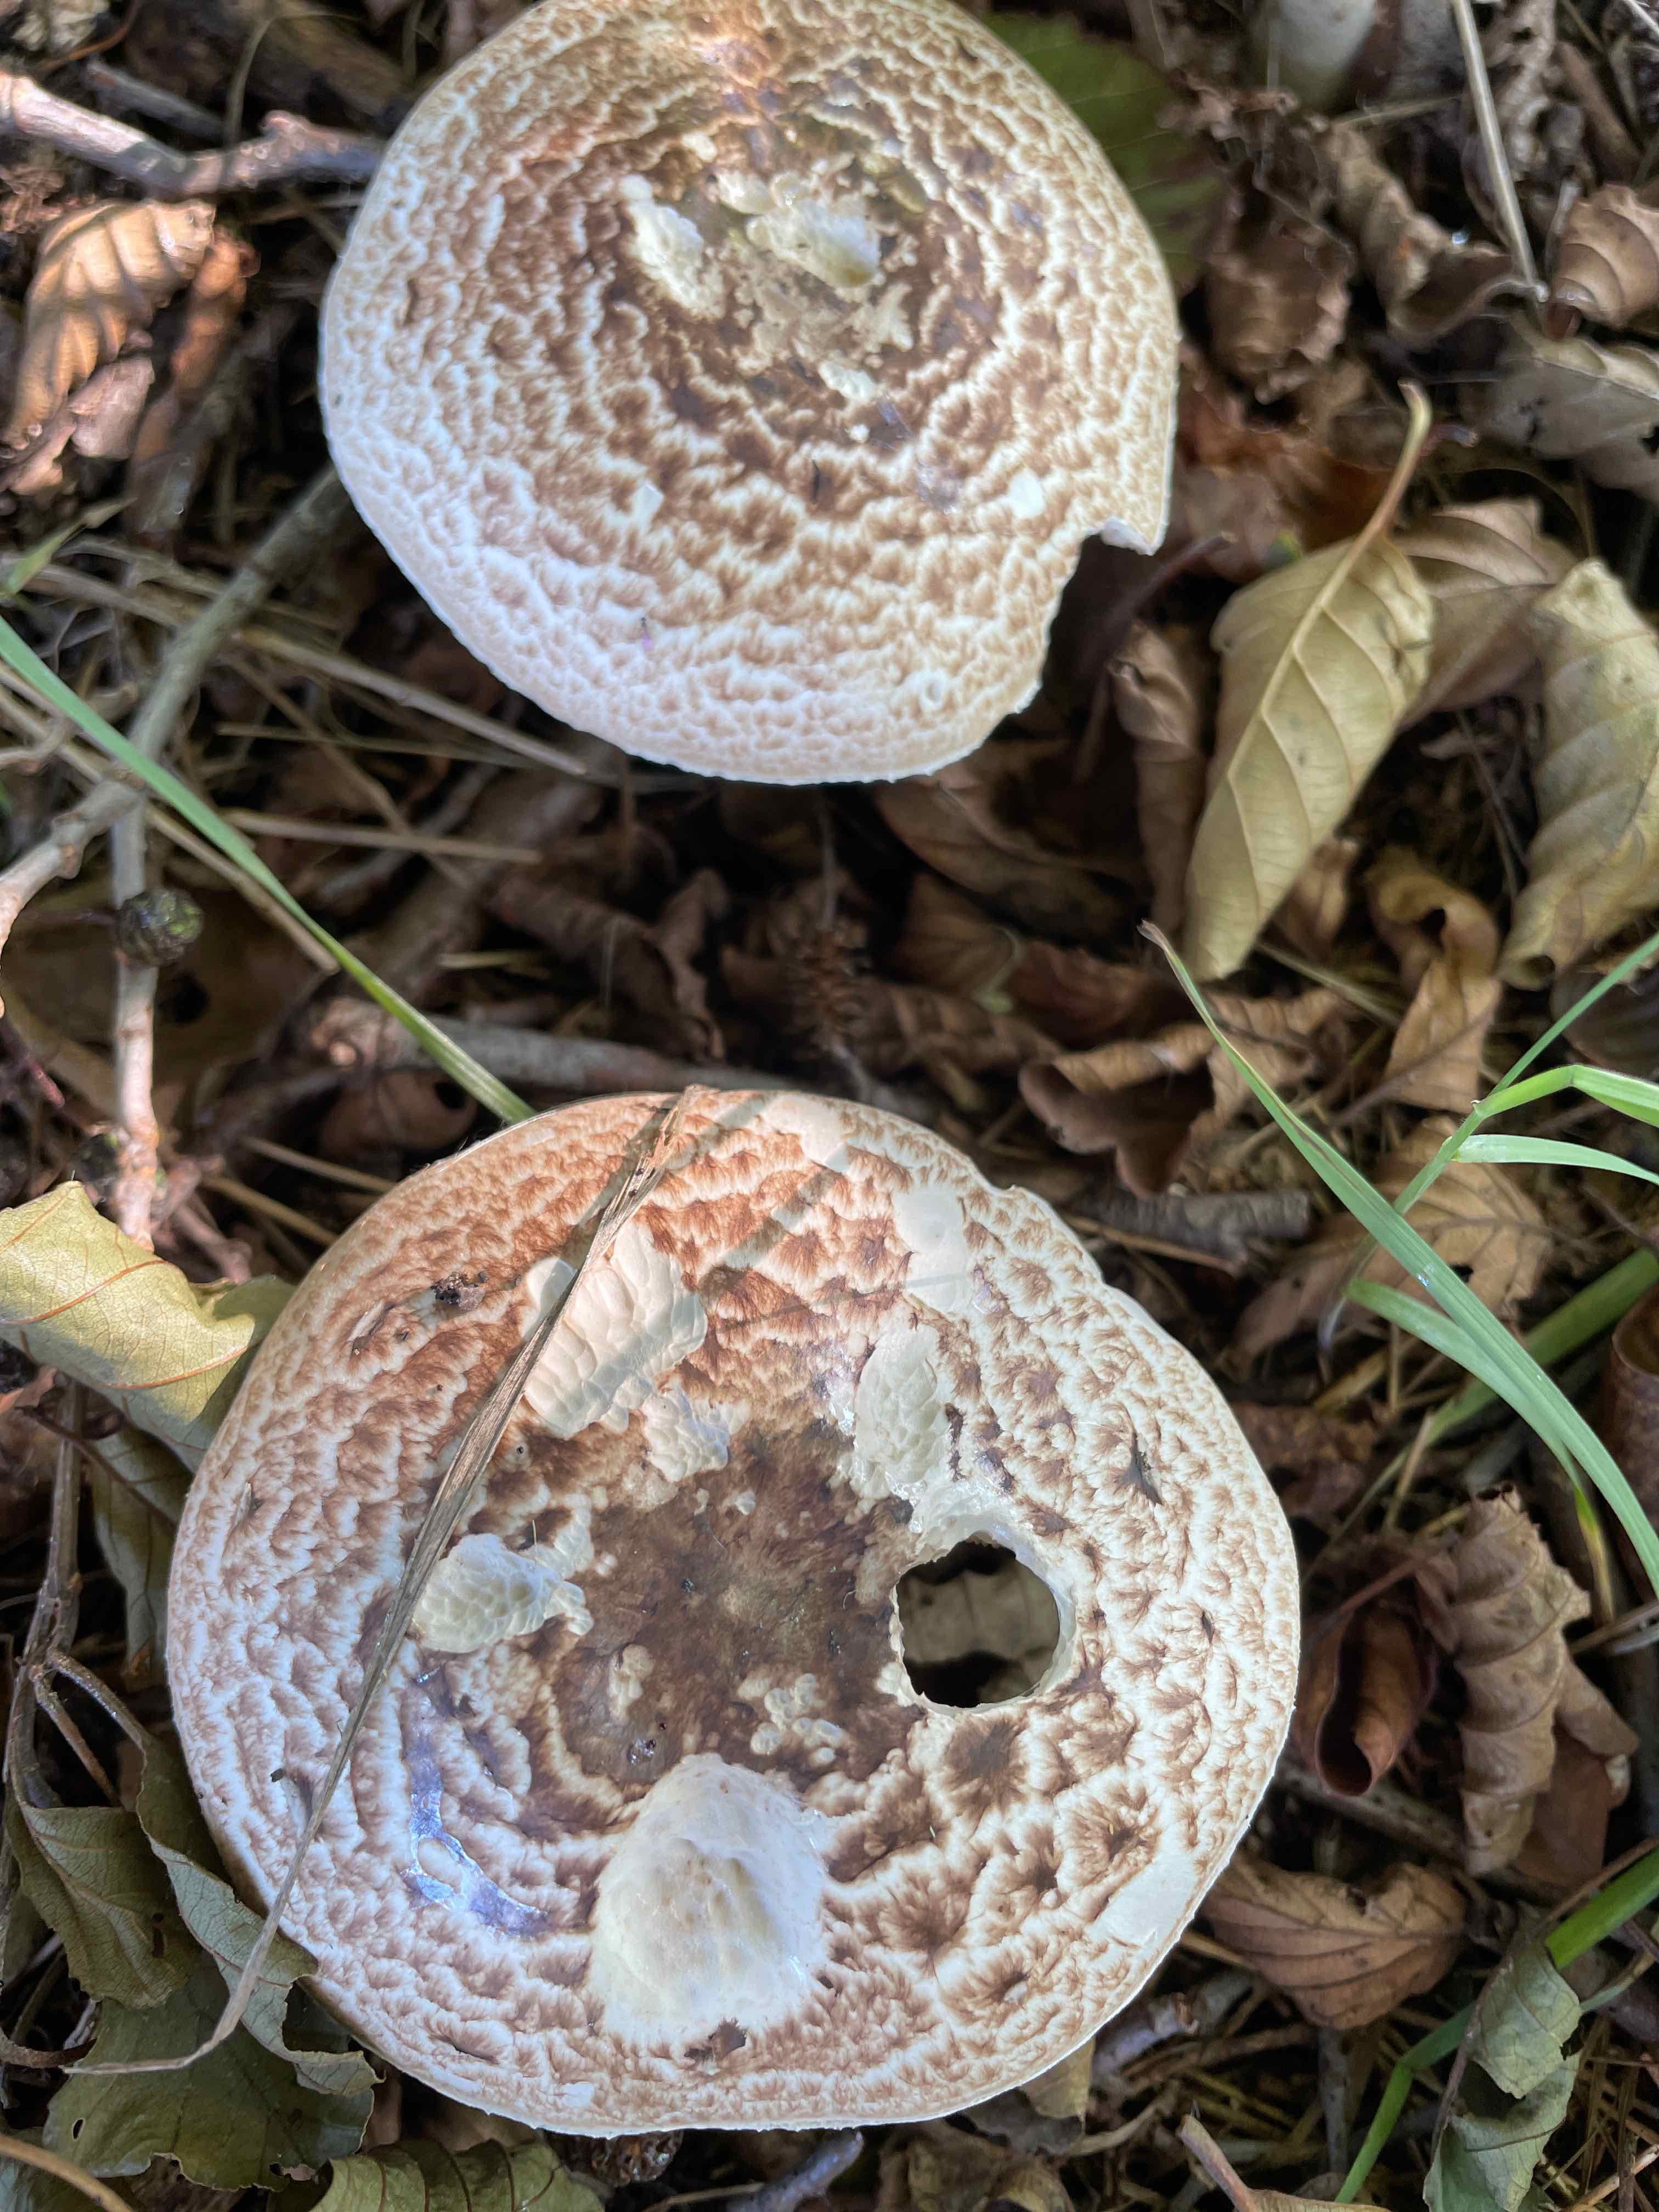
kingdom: Fungi
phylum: Basidiomycota
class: Agaricomycetes
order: Agaricales
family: Agaricaceae
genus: Agaricus
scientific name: Agaricus
